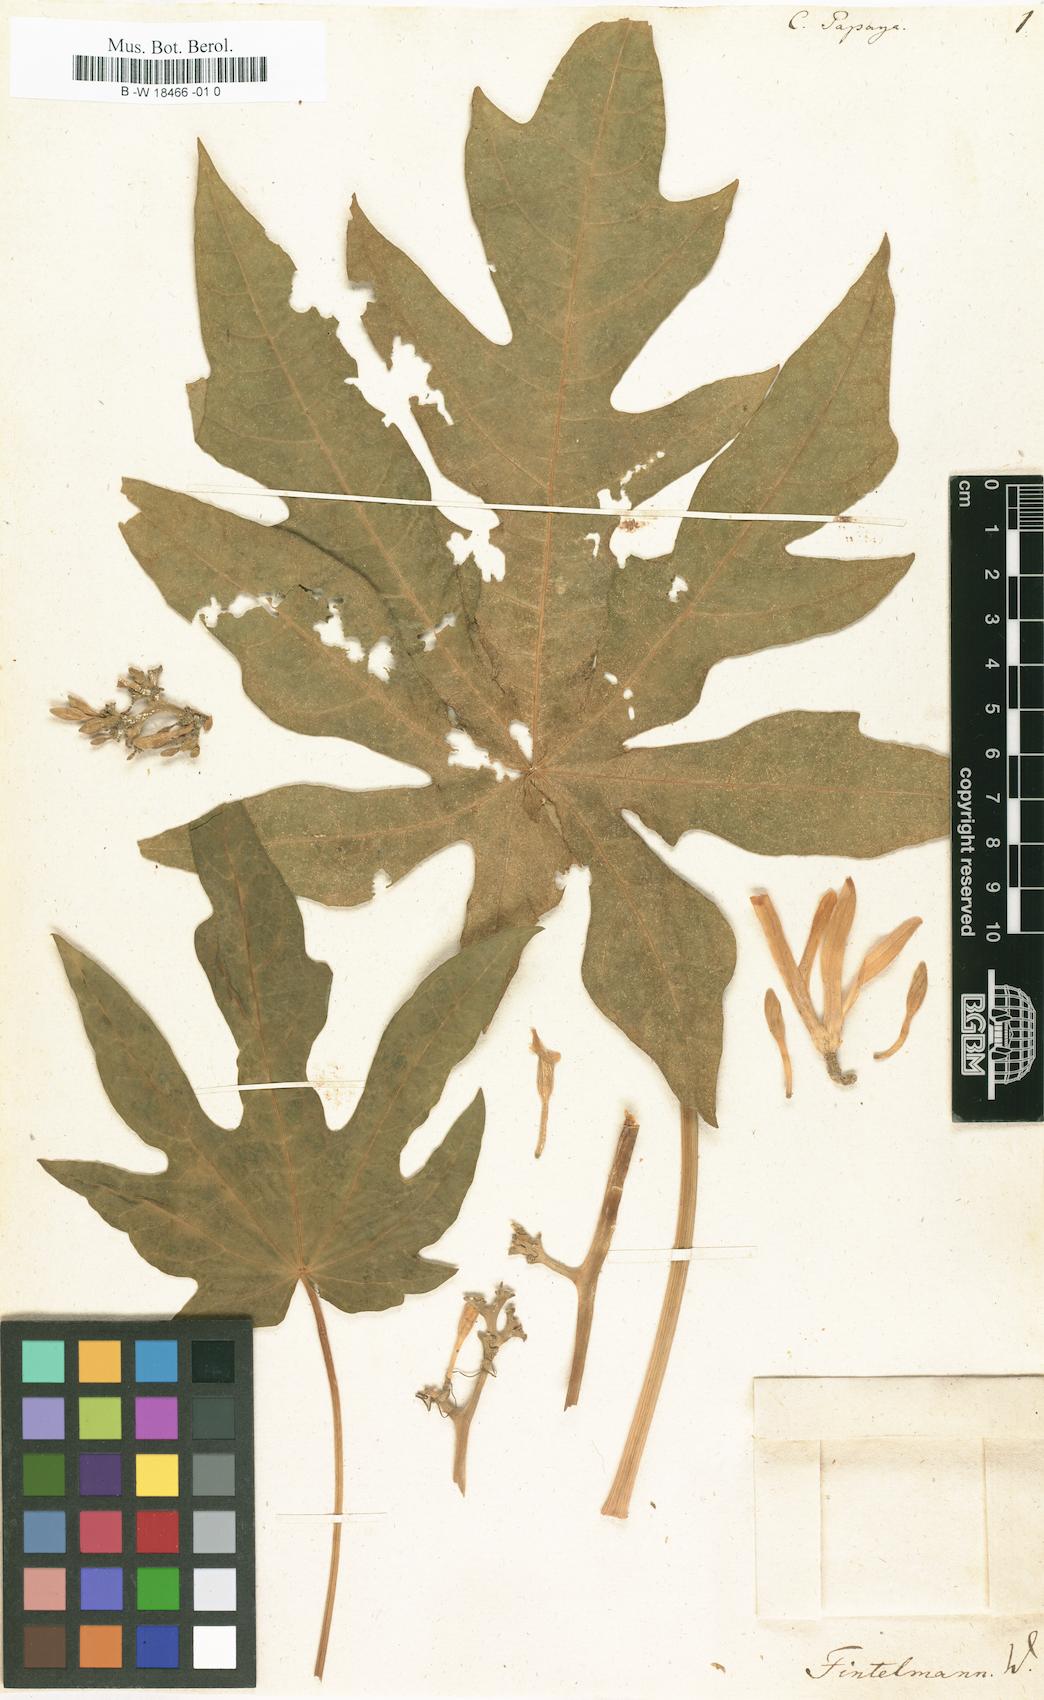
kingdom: Plantae
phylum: Tracheophyta
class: Magnoliopsida
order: Brassicales
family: Caricaceae
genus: Carica
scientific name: Carica papaya
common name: Papaya
